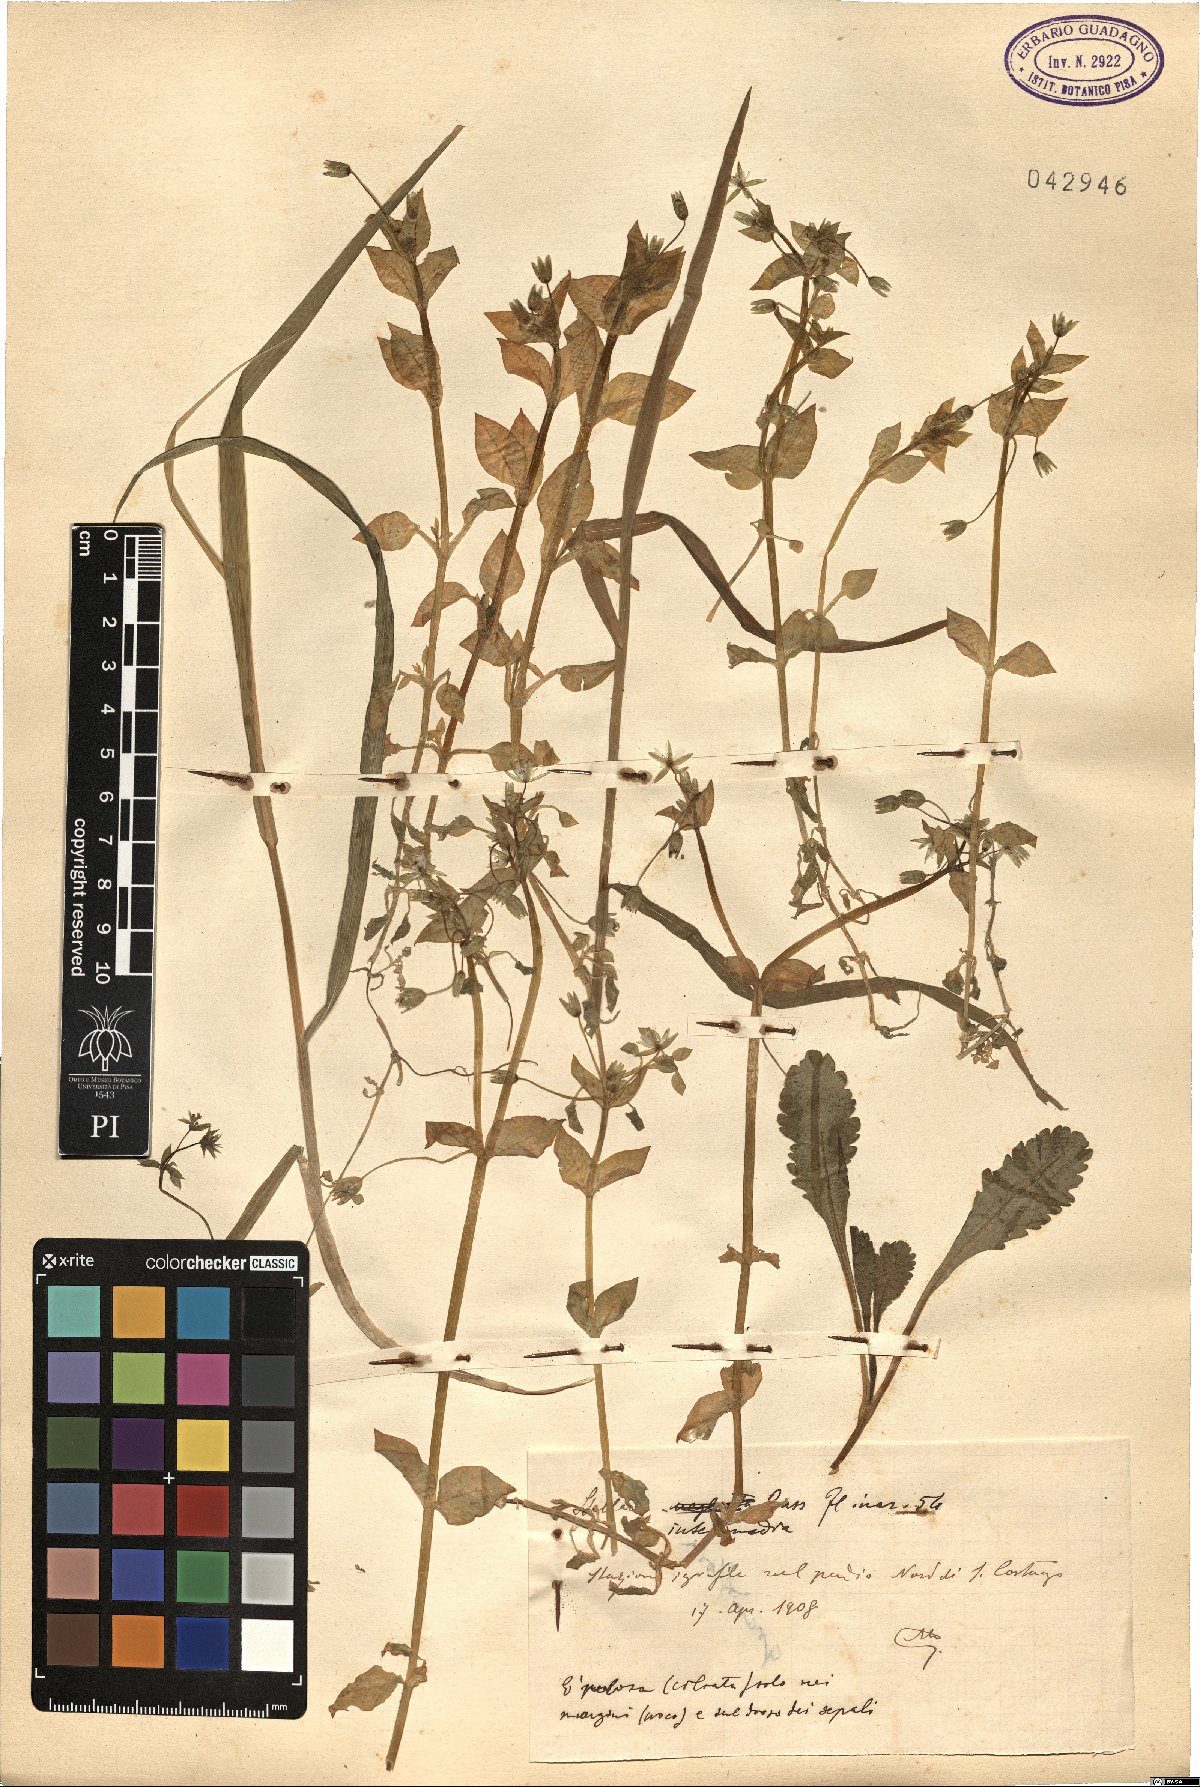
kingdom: Plantae
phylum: Tracheophyta
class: Magnoliopsida
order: Caryophyllales
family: Caryophyllaceae
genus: Stellaria
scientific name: Stellaria
